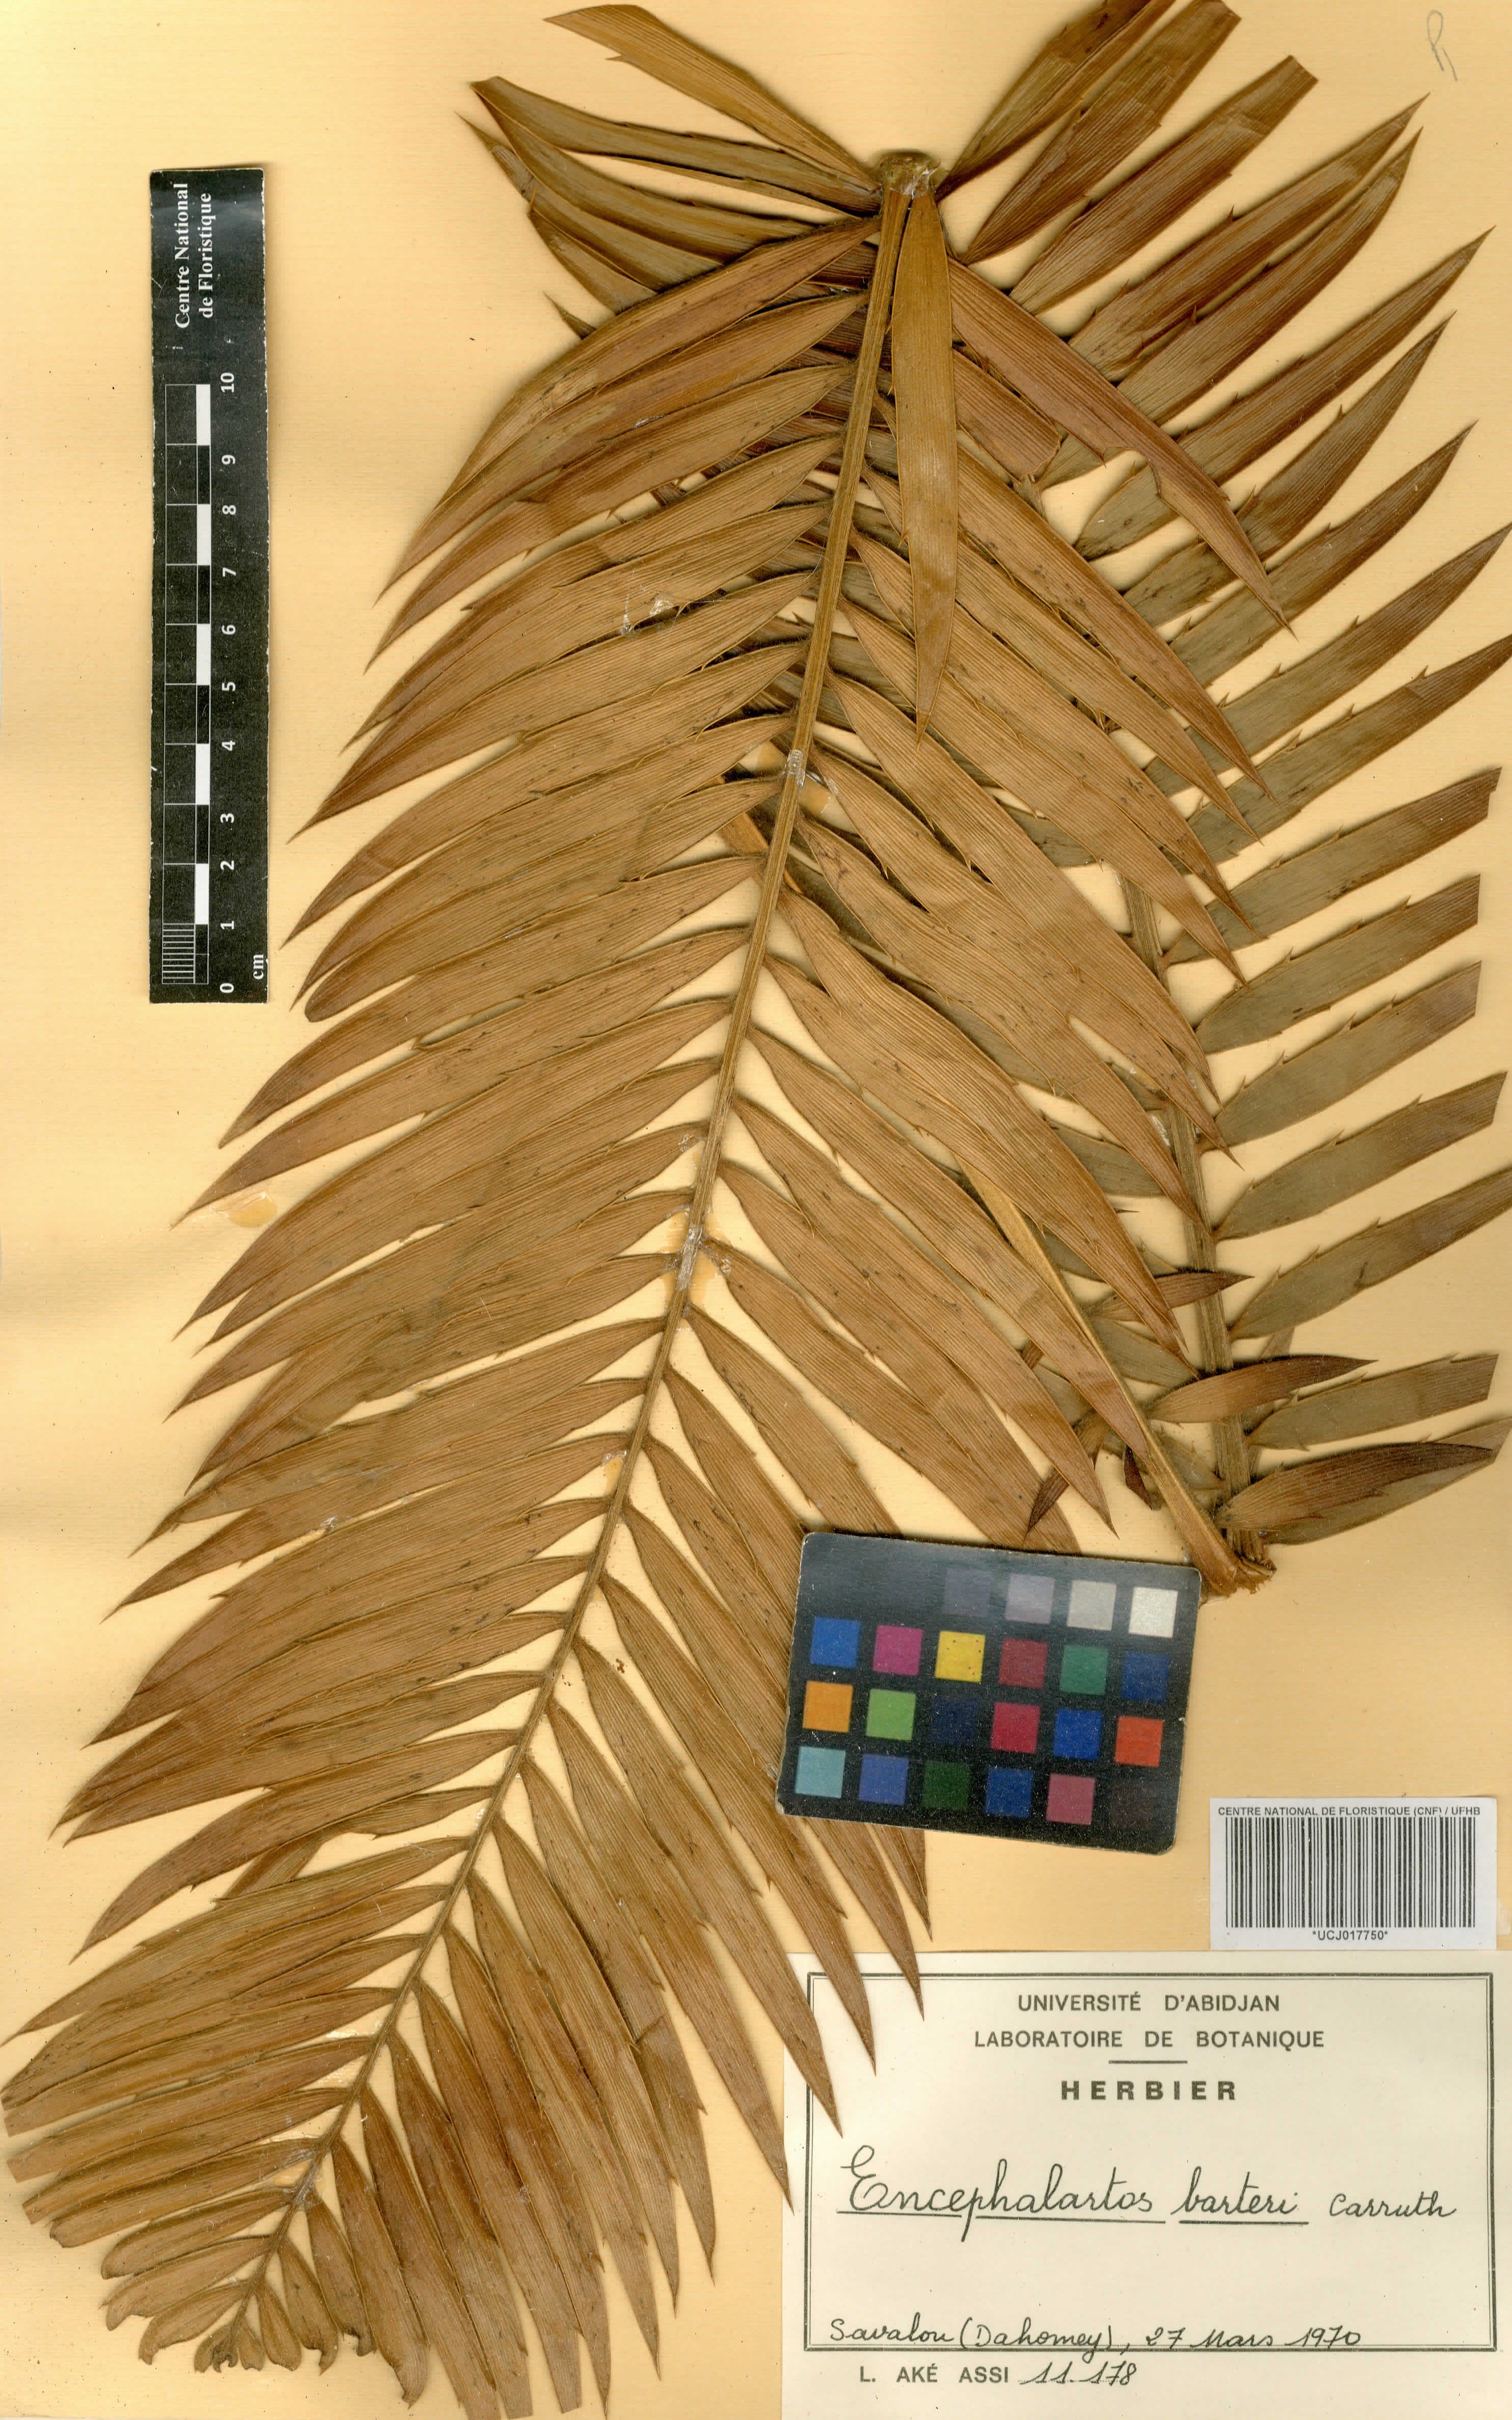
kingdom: Plantae
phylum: Tracheophyta
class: Cycadopsida
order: Cycadales
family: Zamiaceae
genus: Encephalartos
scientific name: Encephalartos barteri
